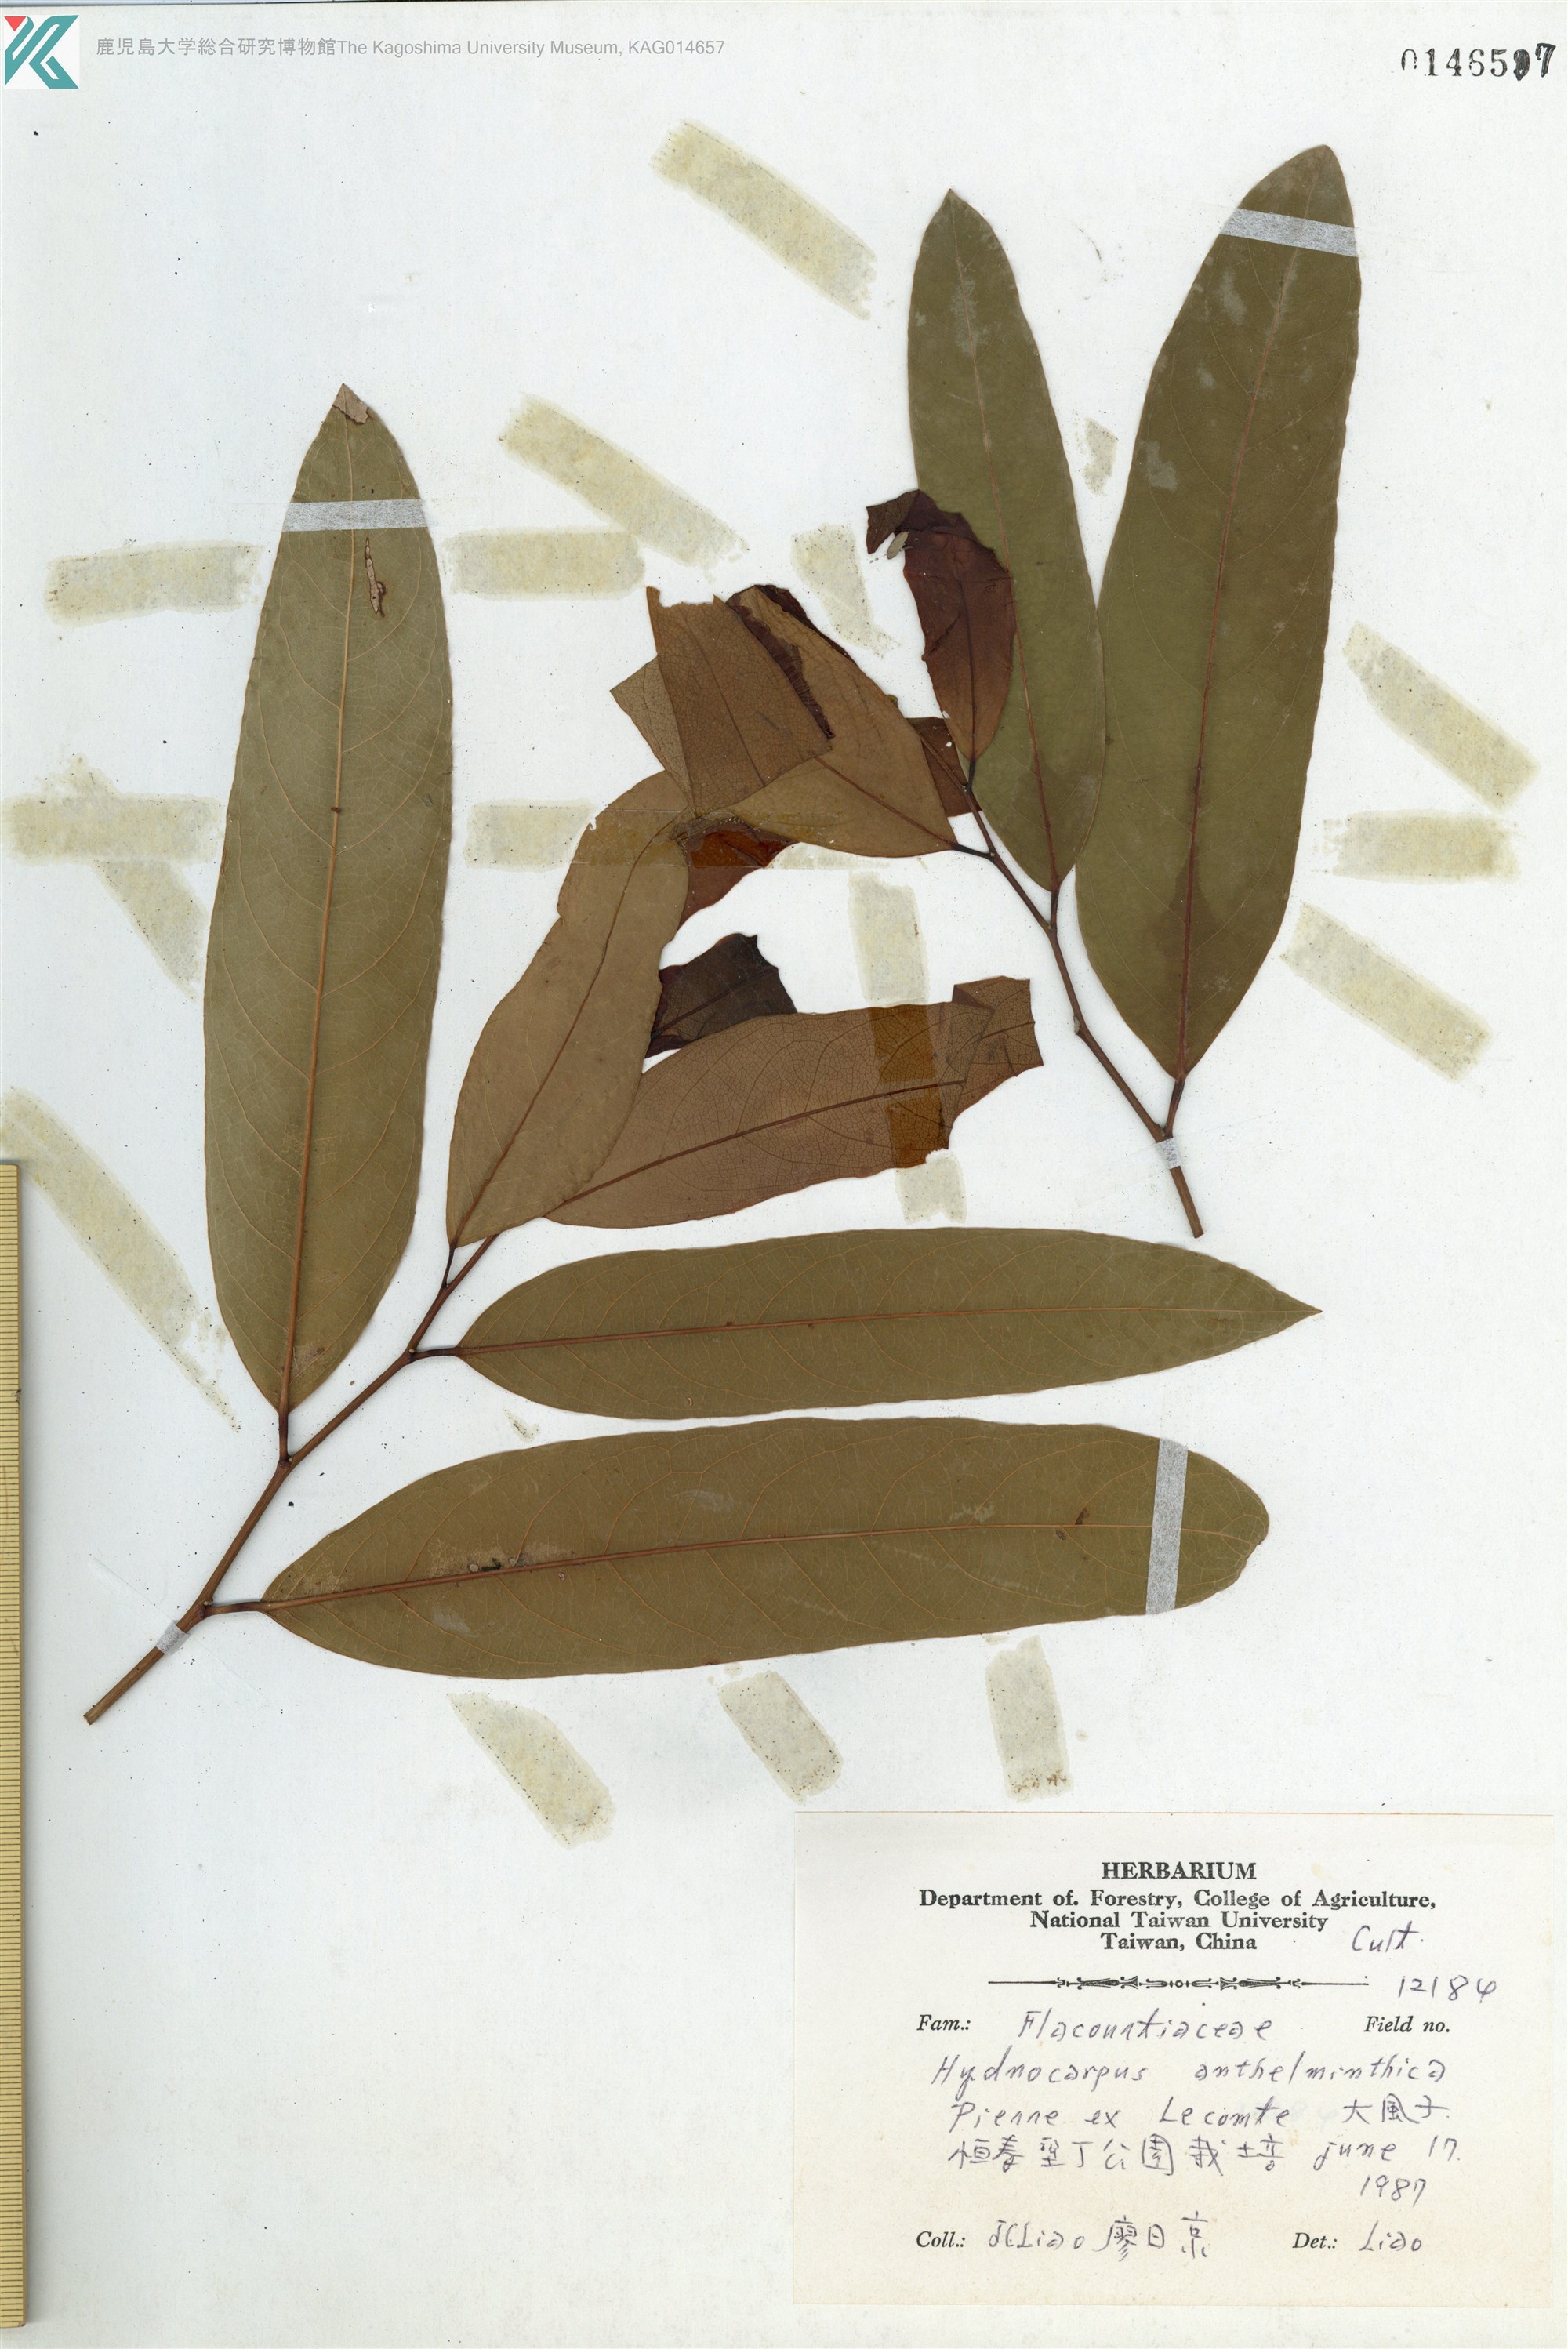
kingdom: Plantae
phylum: Tracheophyta
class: Magnoliopsida
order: Malpighiales
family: Achariaceae
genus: Hydnocarpus
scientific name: Hydnocarpus castaneus
